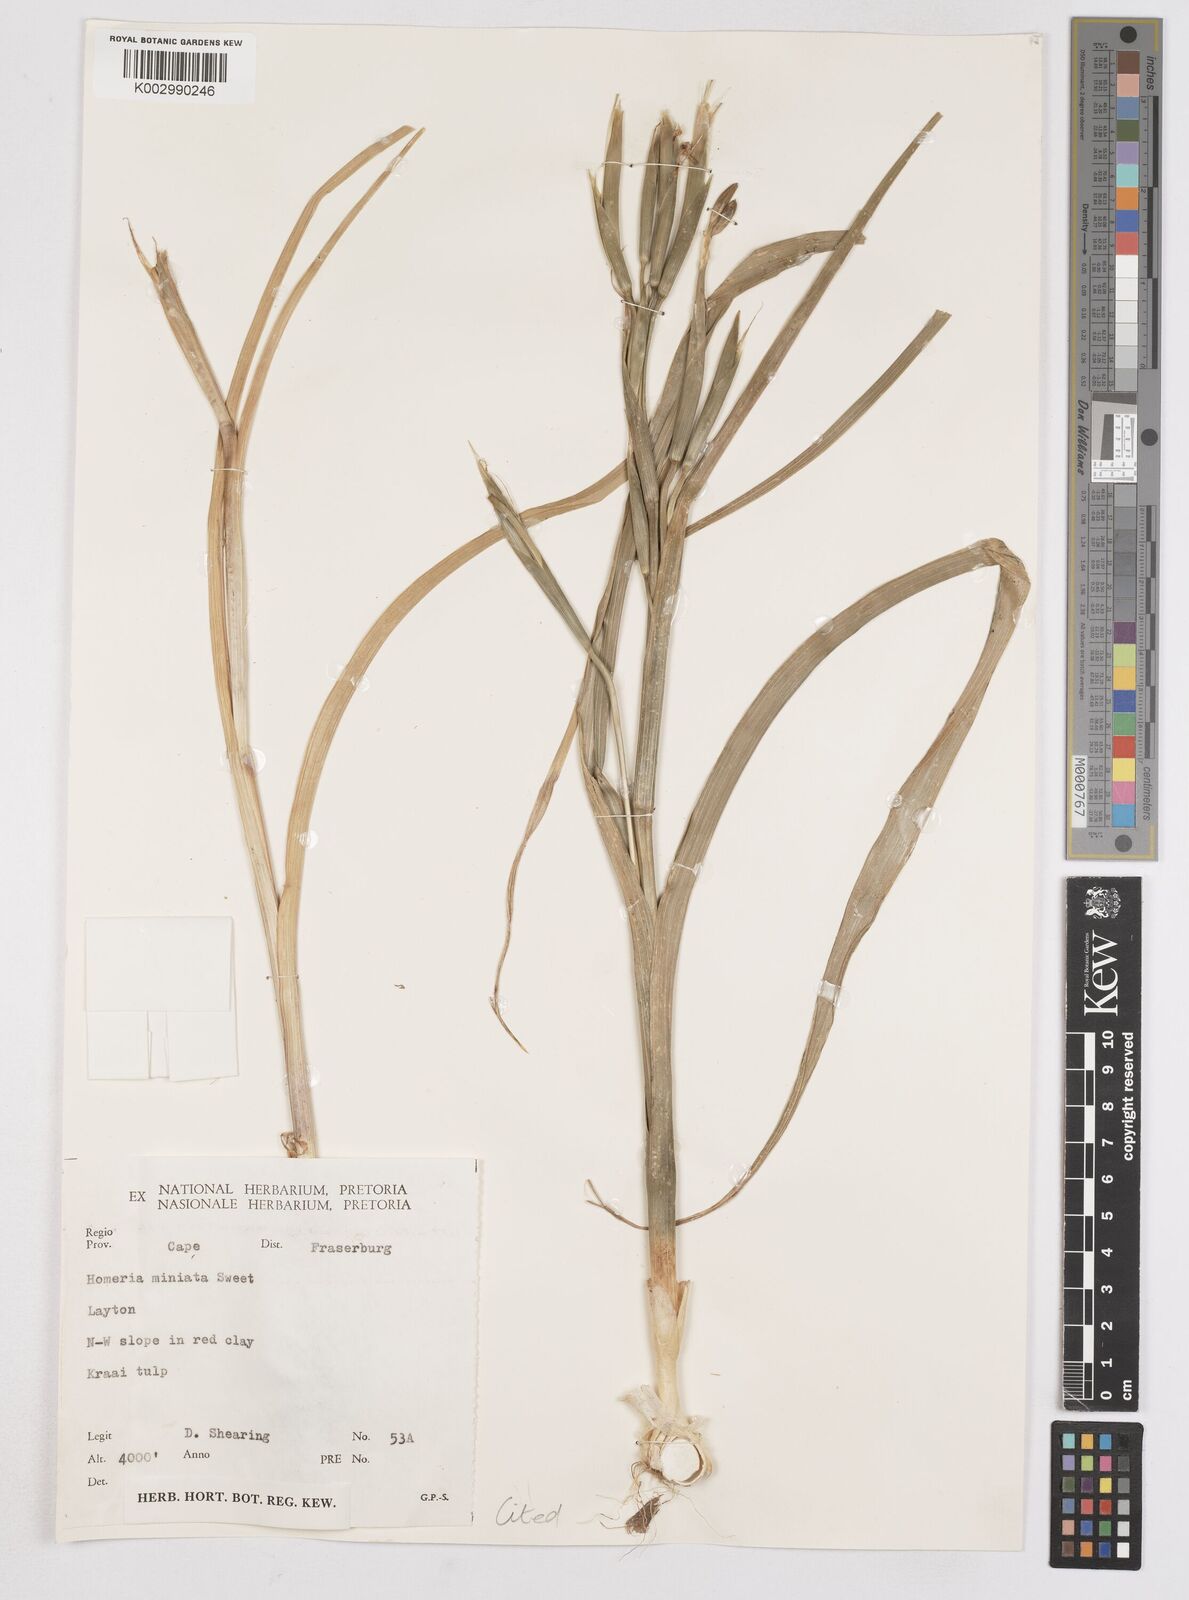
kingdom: Plantae
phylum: Tracheophyta
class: Liliopsida
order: Asparagales
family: Iridaceae
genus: Moraea
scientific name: Moraea miniata
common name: Two-leaf cape-tulip
